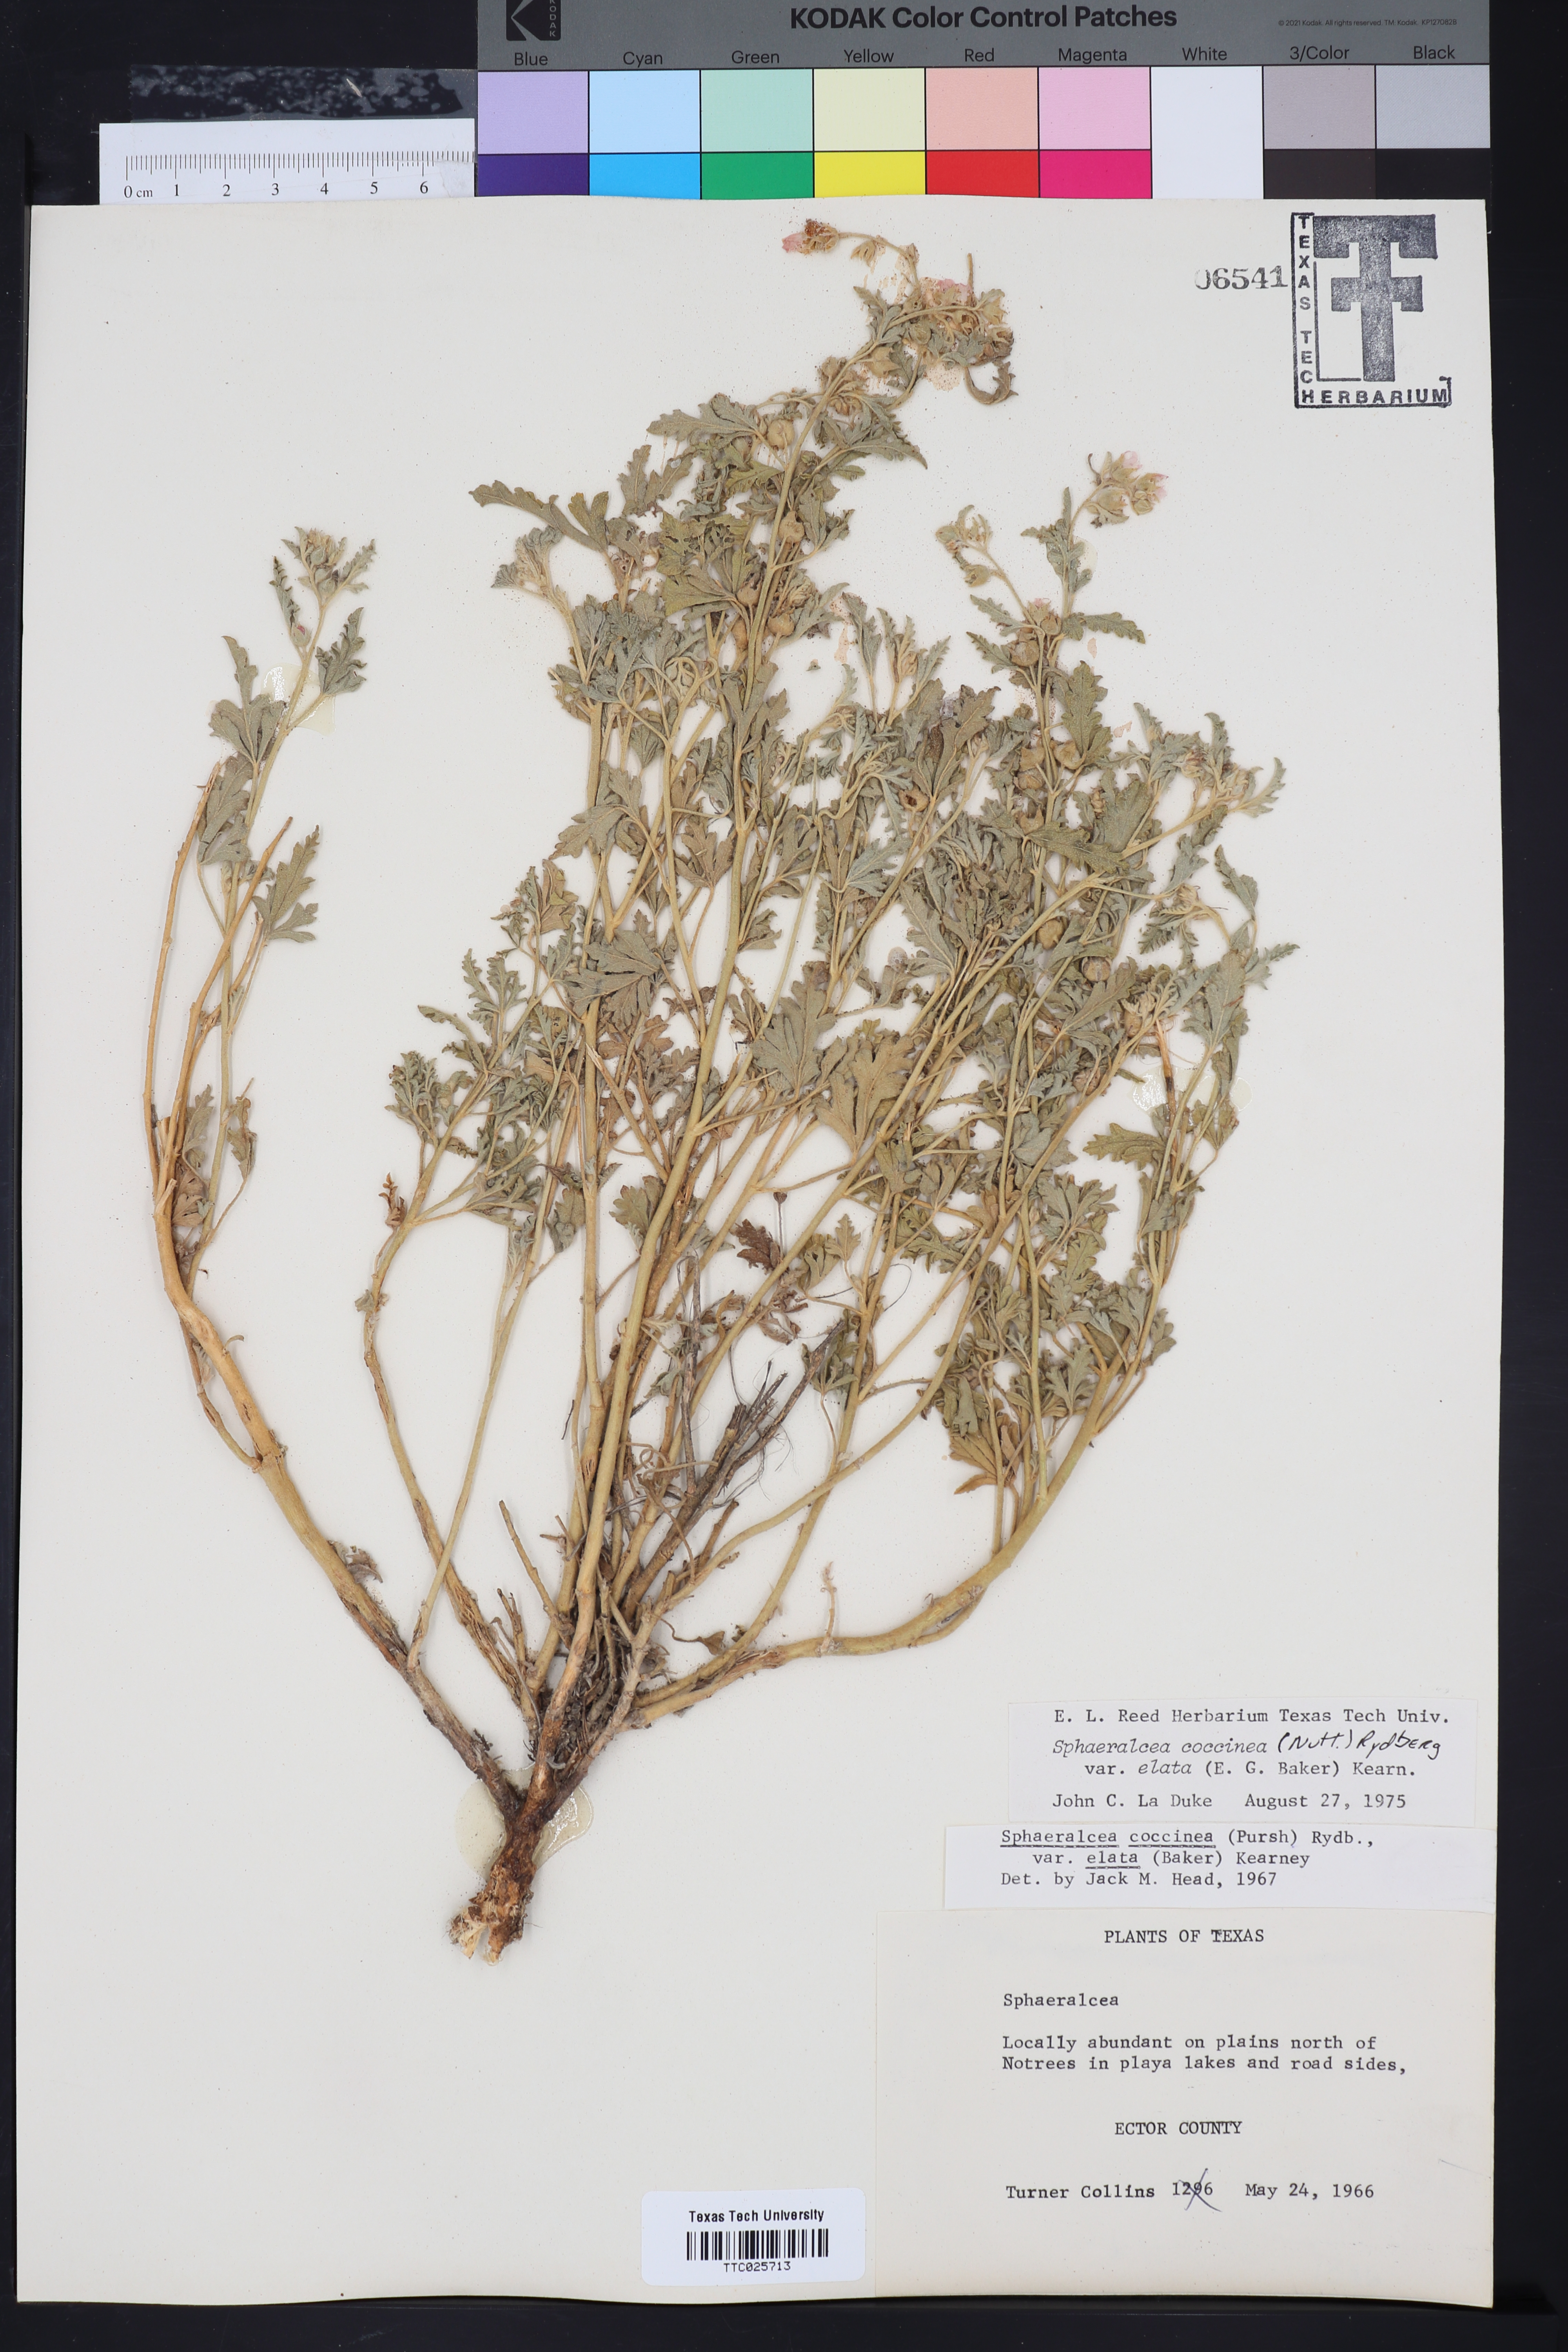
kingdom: Plantae
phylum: Tracheophyta
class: Magnoliopsida
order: Malvales
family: Malvaceae
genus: Sphaeralcea
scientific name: Sphaeralcea coccinea
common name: Moss-rose
